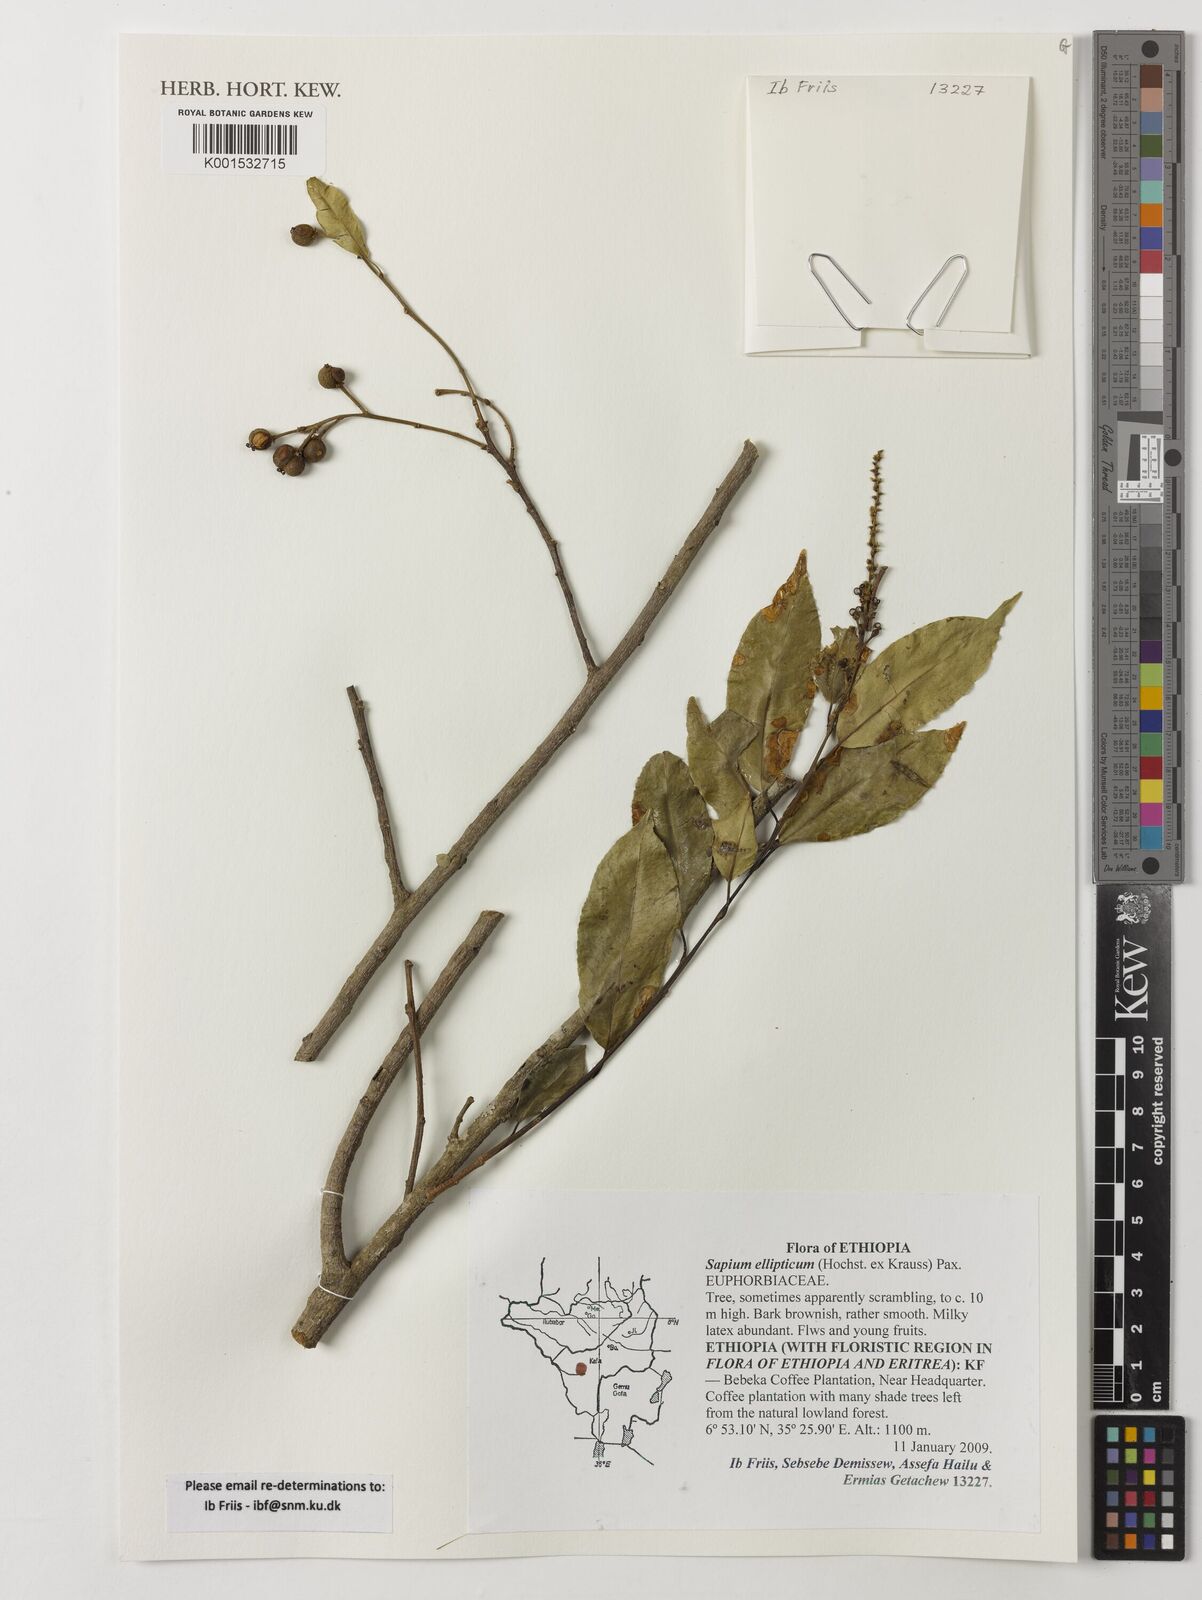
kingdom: Plantae
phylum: Tracheophyta
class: Magnoliopsida
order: Malpighiales
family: Euphorbiaceae
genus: Shirakiopsis
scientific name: Shirakiopsis elliptica
